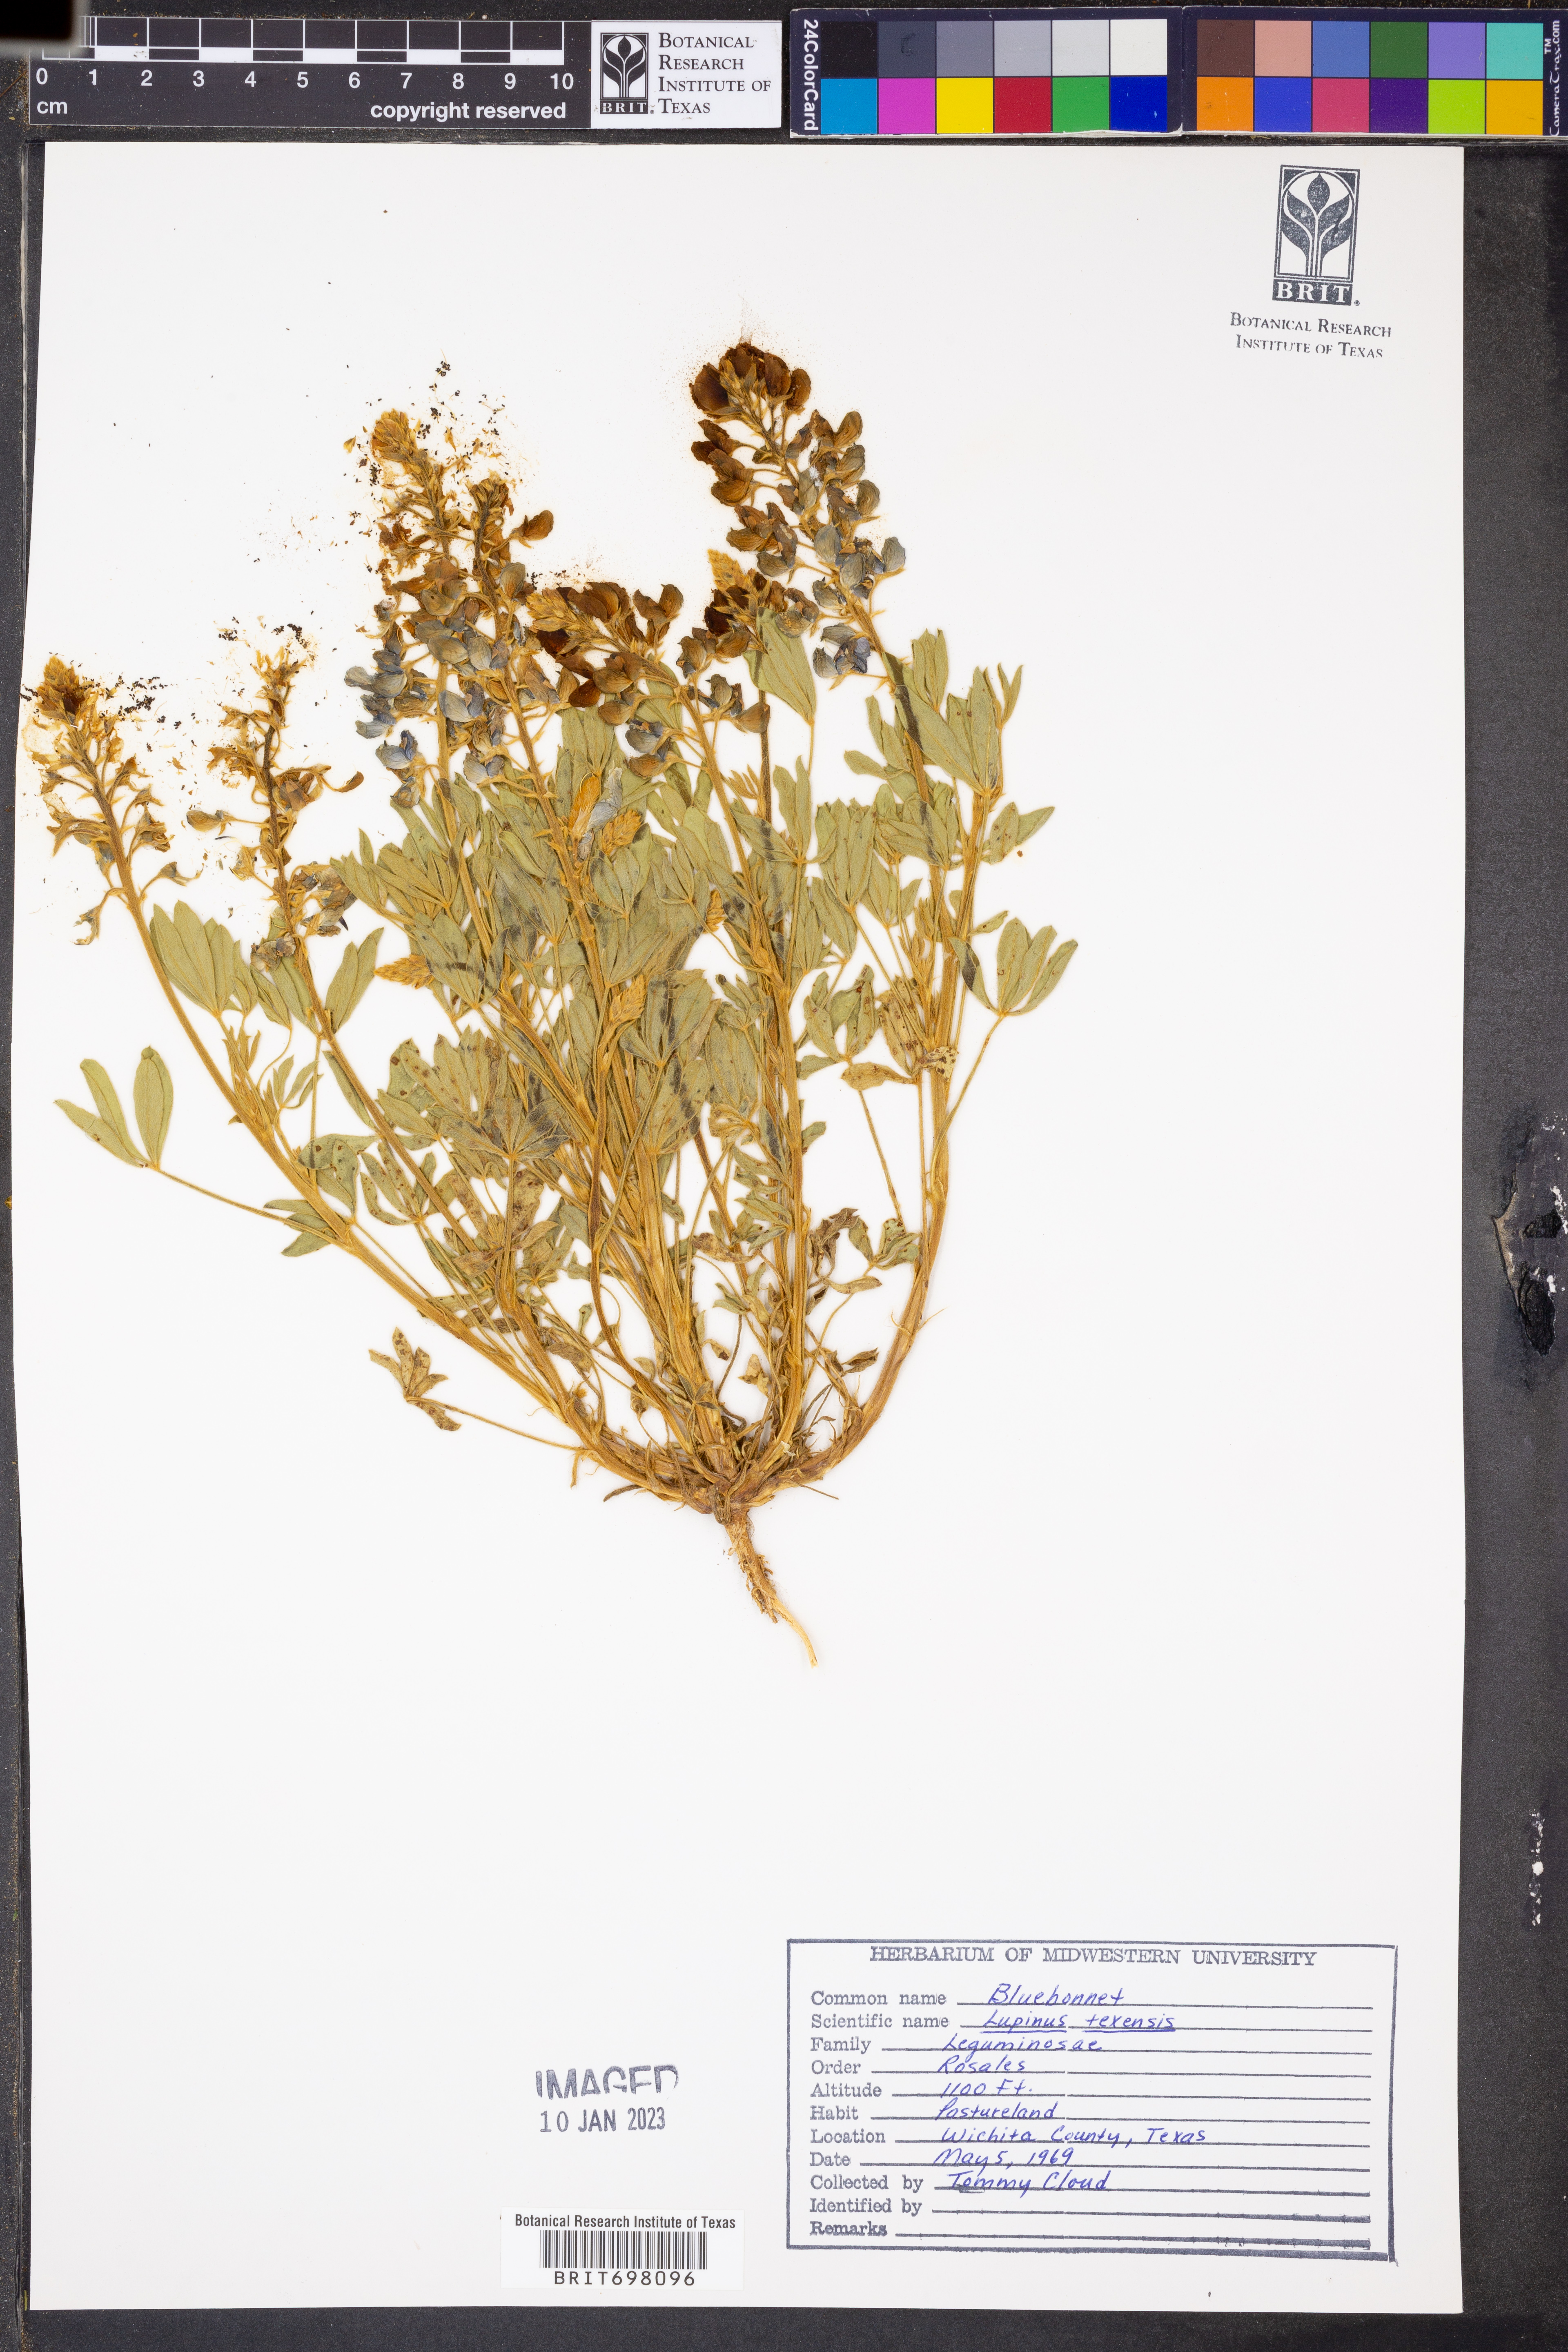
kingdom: Plantae
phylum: Tracheophyta
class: Magnoliopsida
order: Fabales
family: Fabaceae
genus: Lupinus
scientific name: Lupinus texensis
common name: Texas bluebonnet
